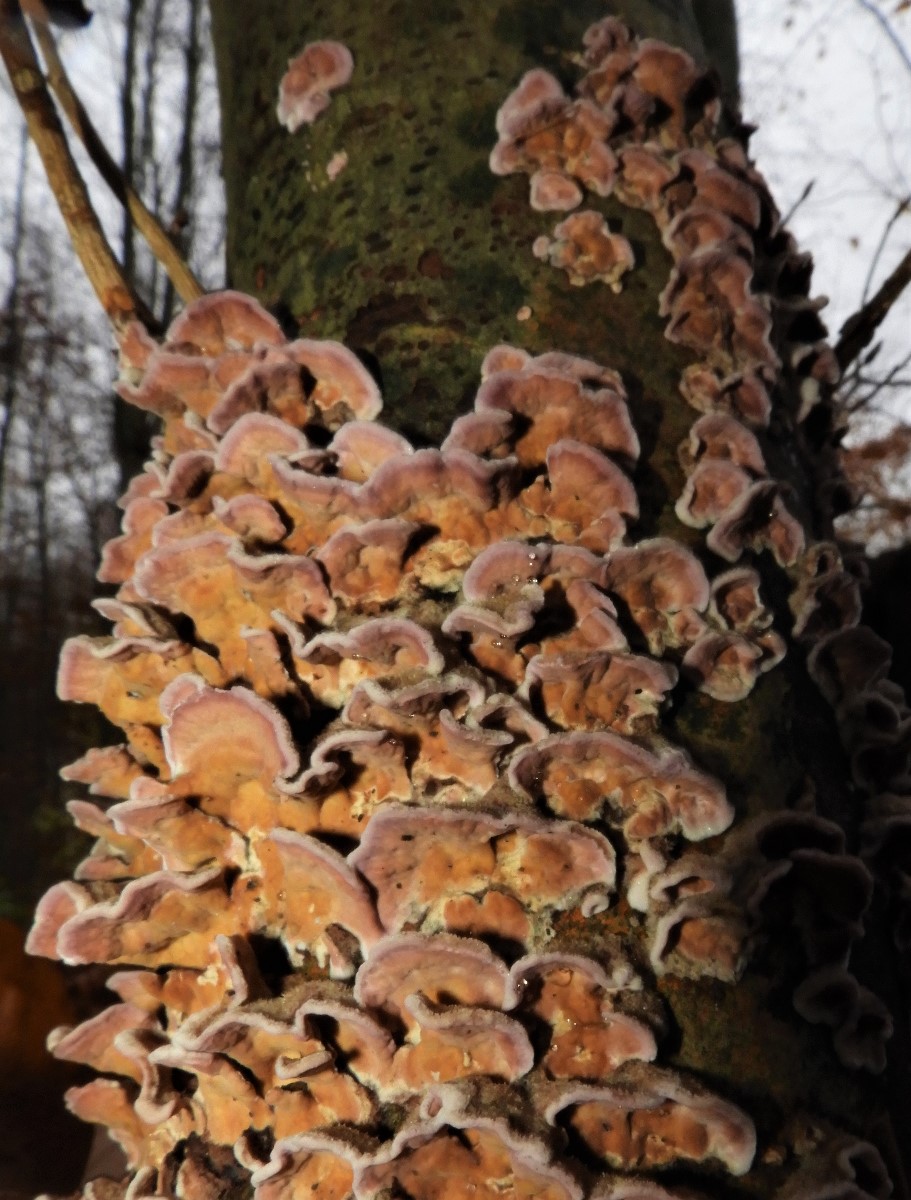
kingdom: Fungi
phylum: Basidiomycota
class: Agaricomycetes
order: Agaricales
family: Cyphellaceae
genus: Chondrostereum
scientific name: Chondrostereum purpureum
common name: purpurlædersvamp
